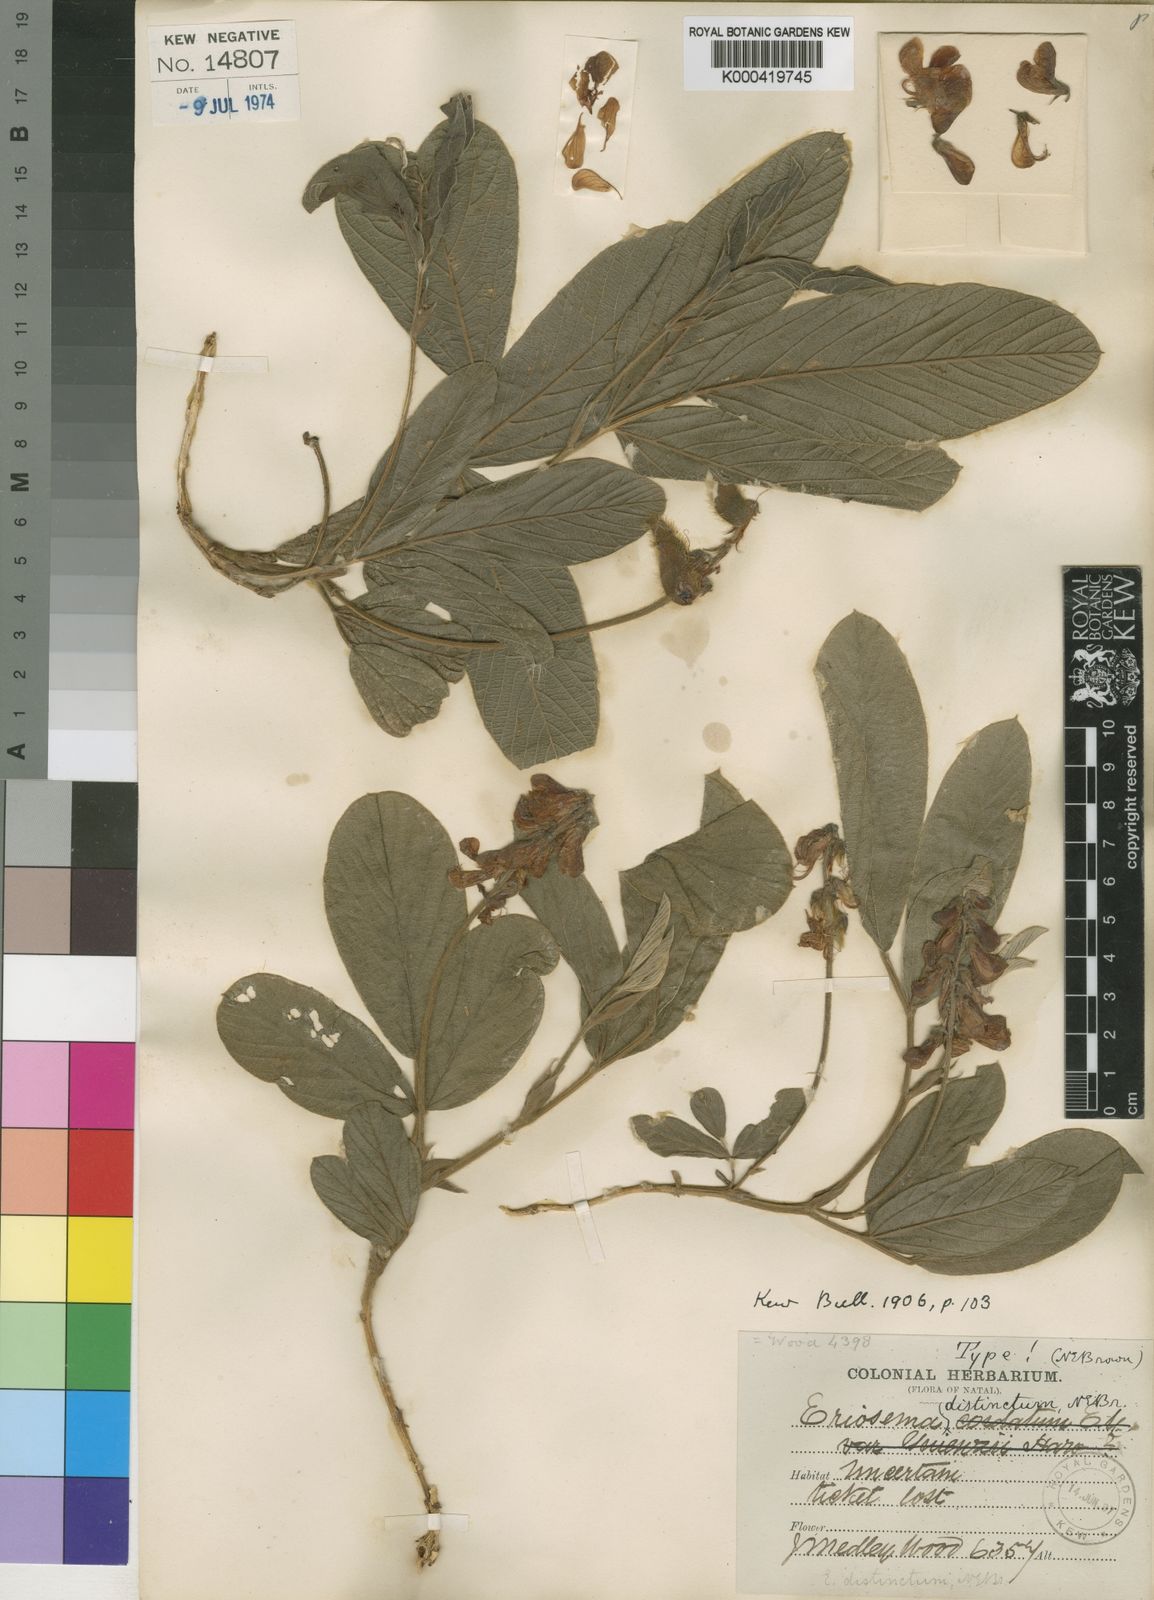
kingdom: Plantae
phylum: Tracheophyta
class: Magnoliopsida
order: Fabales
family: Fabaceae
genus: Eriosema
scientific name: Eriosema distinctum
